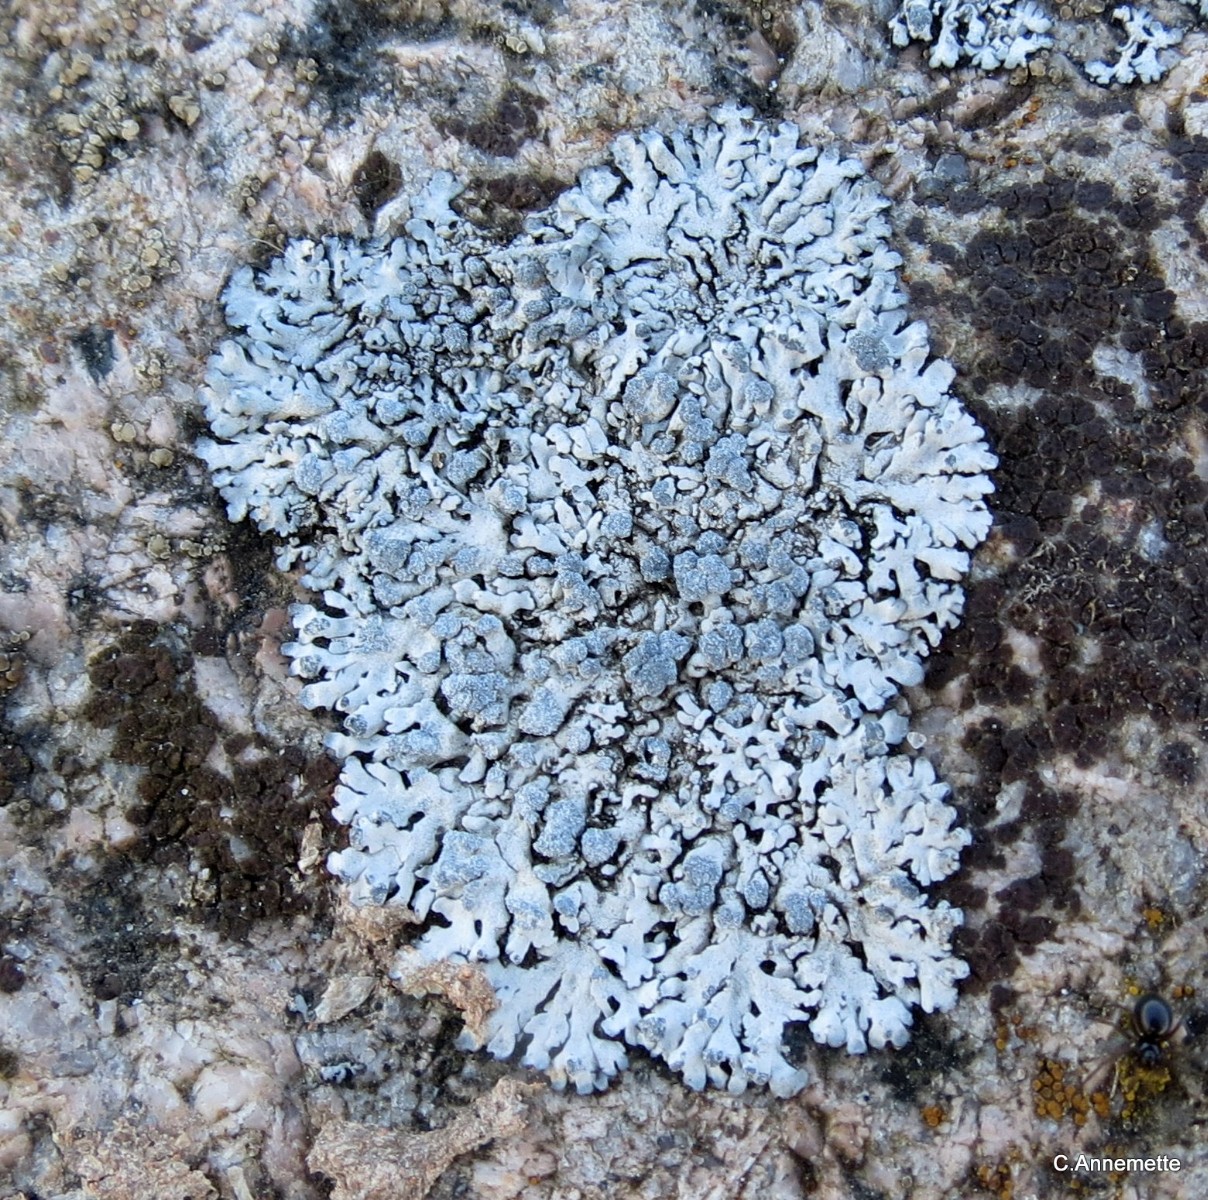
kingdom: Fungi
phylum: Ascomycota
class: Lecanoromycetes
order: Caliciales
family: Physciaceae
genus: Physcia
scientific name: Physcia caesia
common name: blågrå rosetlav
